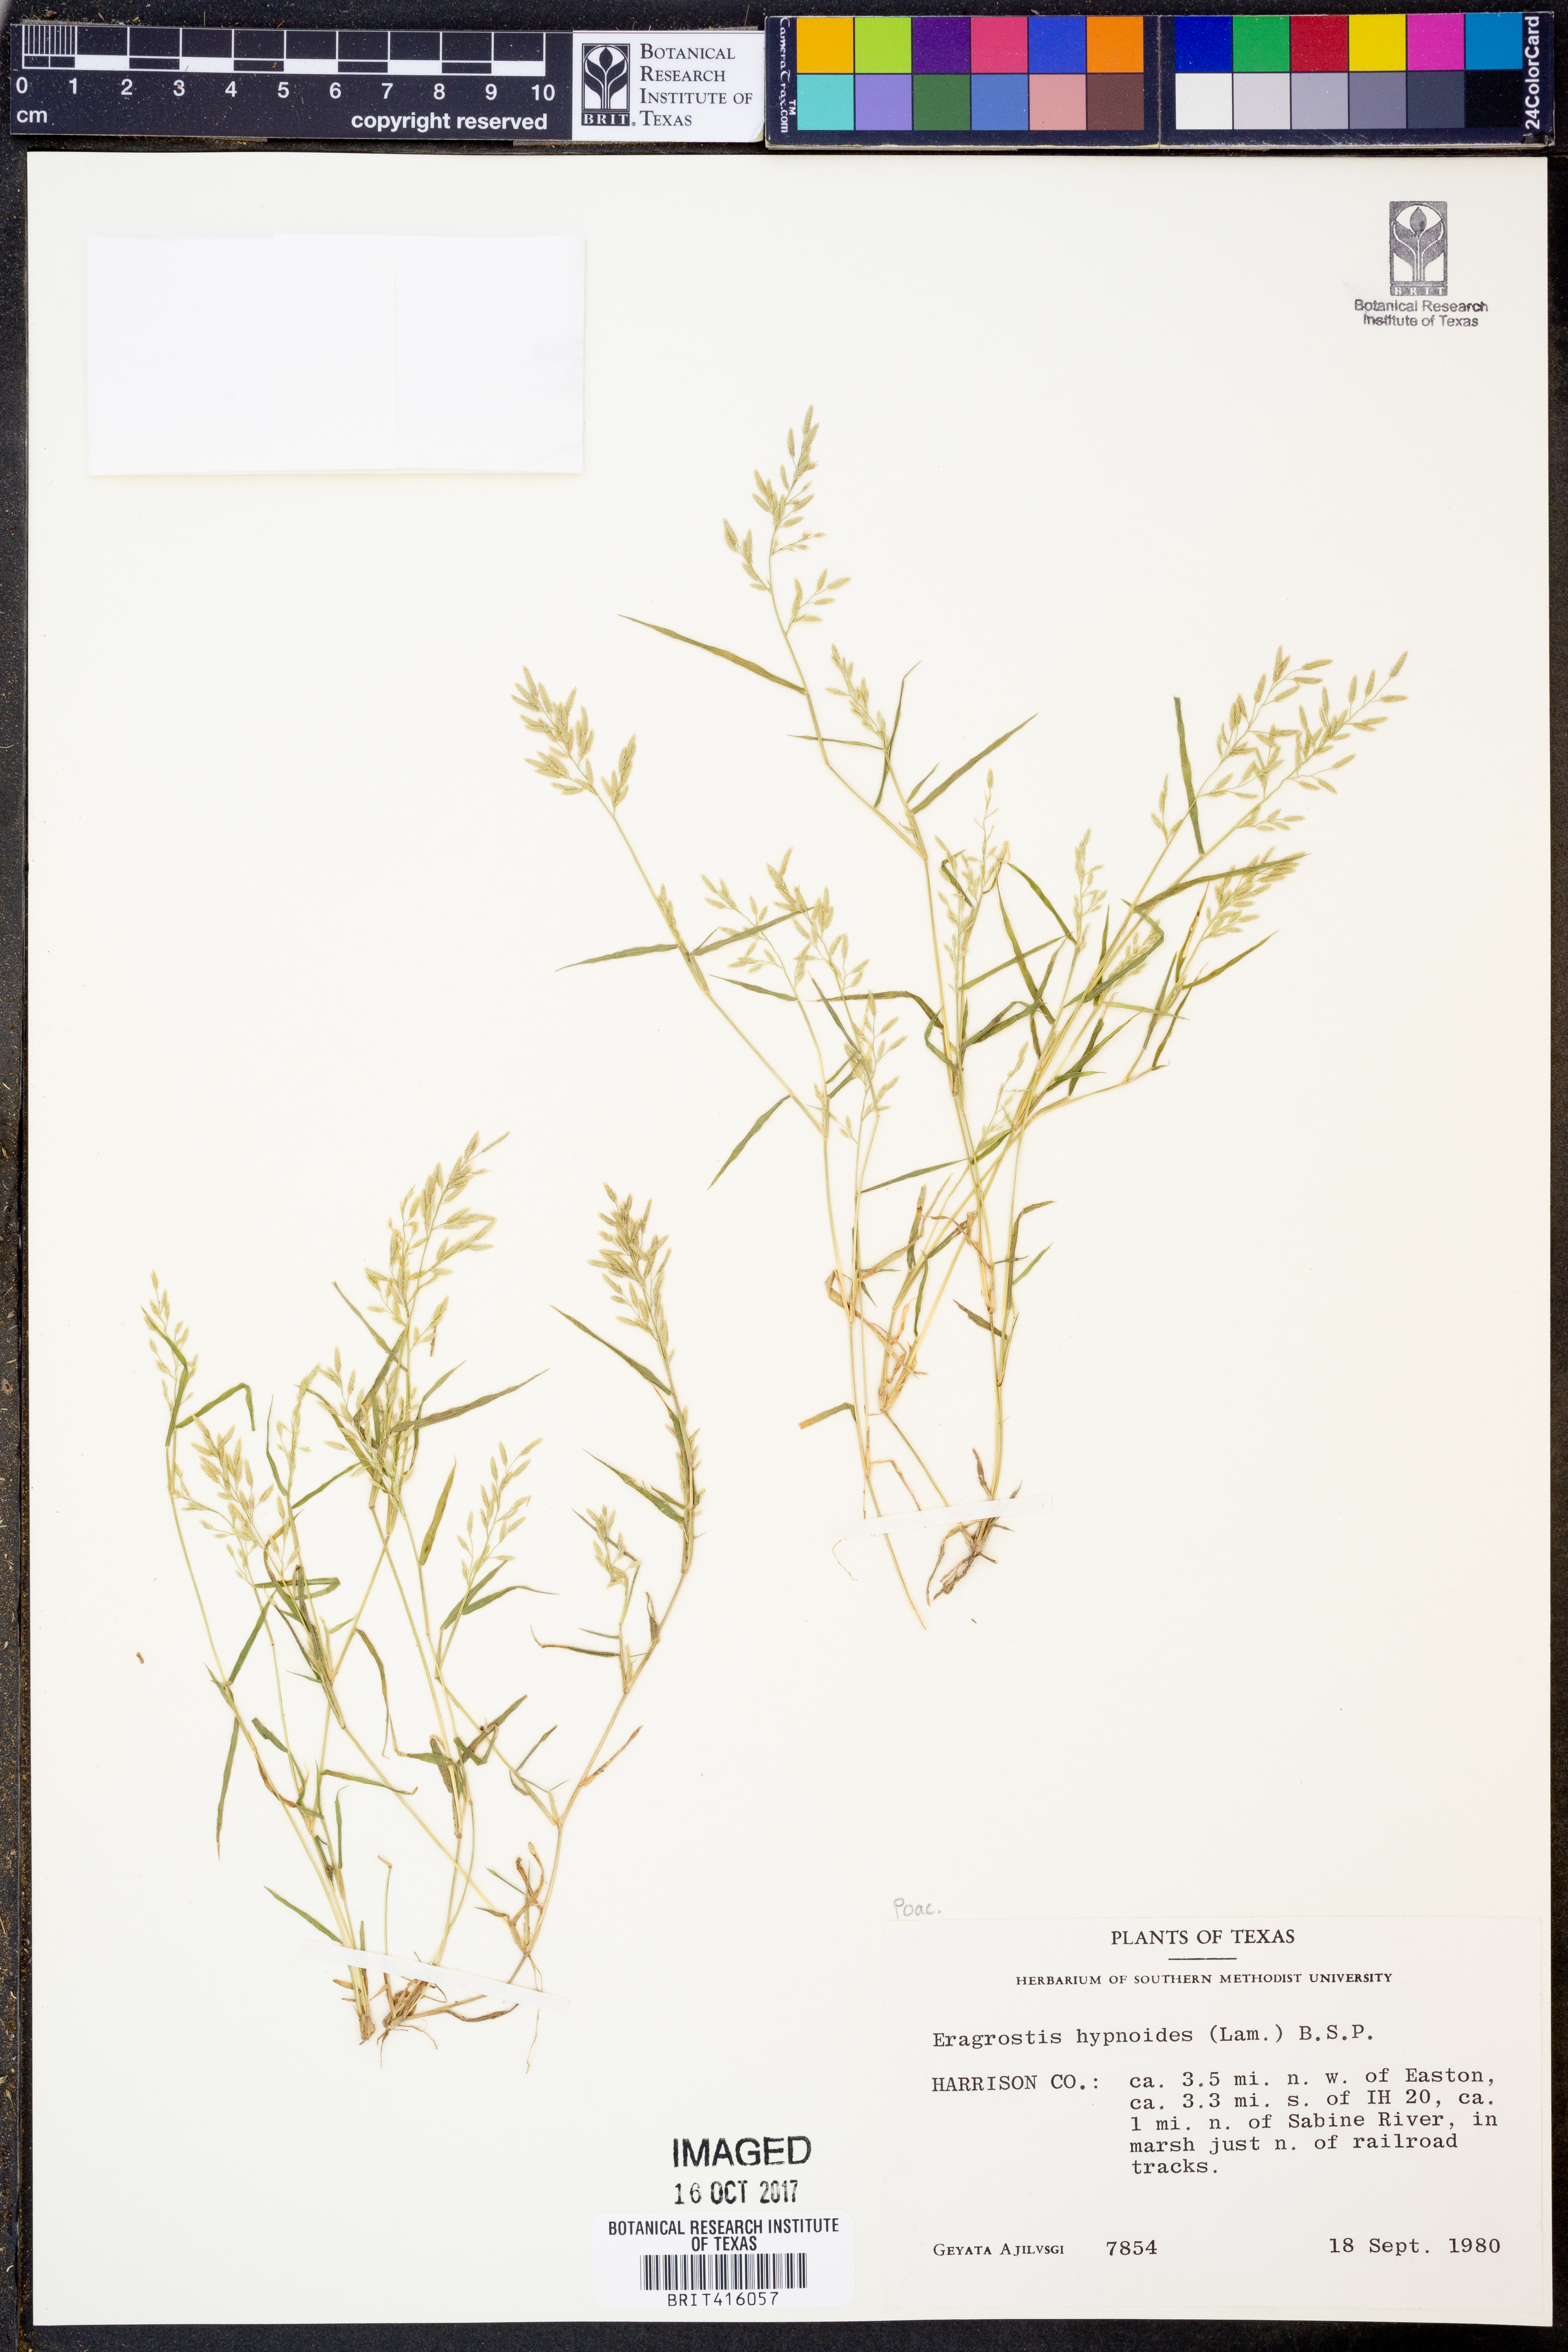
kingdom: Plantae
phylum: Tracheophyta
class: Liliopsida
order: Poales
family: Poaceae
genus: Eragrostis
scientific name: Eragrostis hypnoides
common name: Creeping love grass
